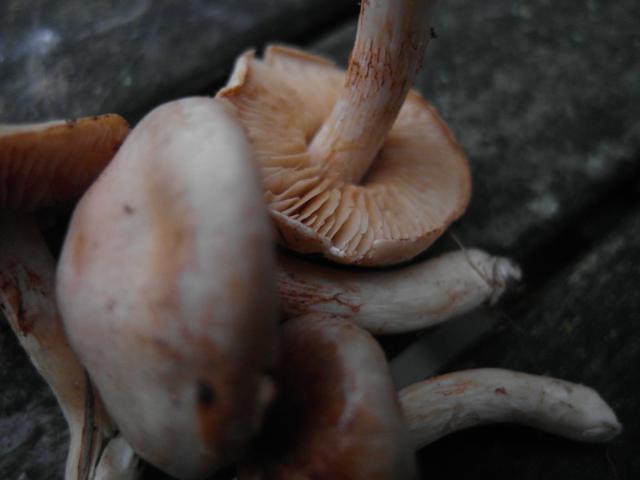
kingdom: Fungi
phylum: Basidiomycota
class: Agaricomycetes
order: Agaricales
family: Cortinariaceae
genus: Thaxterogaster
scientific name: Thaxterogaster barbatus
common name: elfenbens-slørhat
